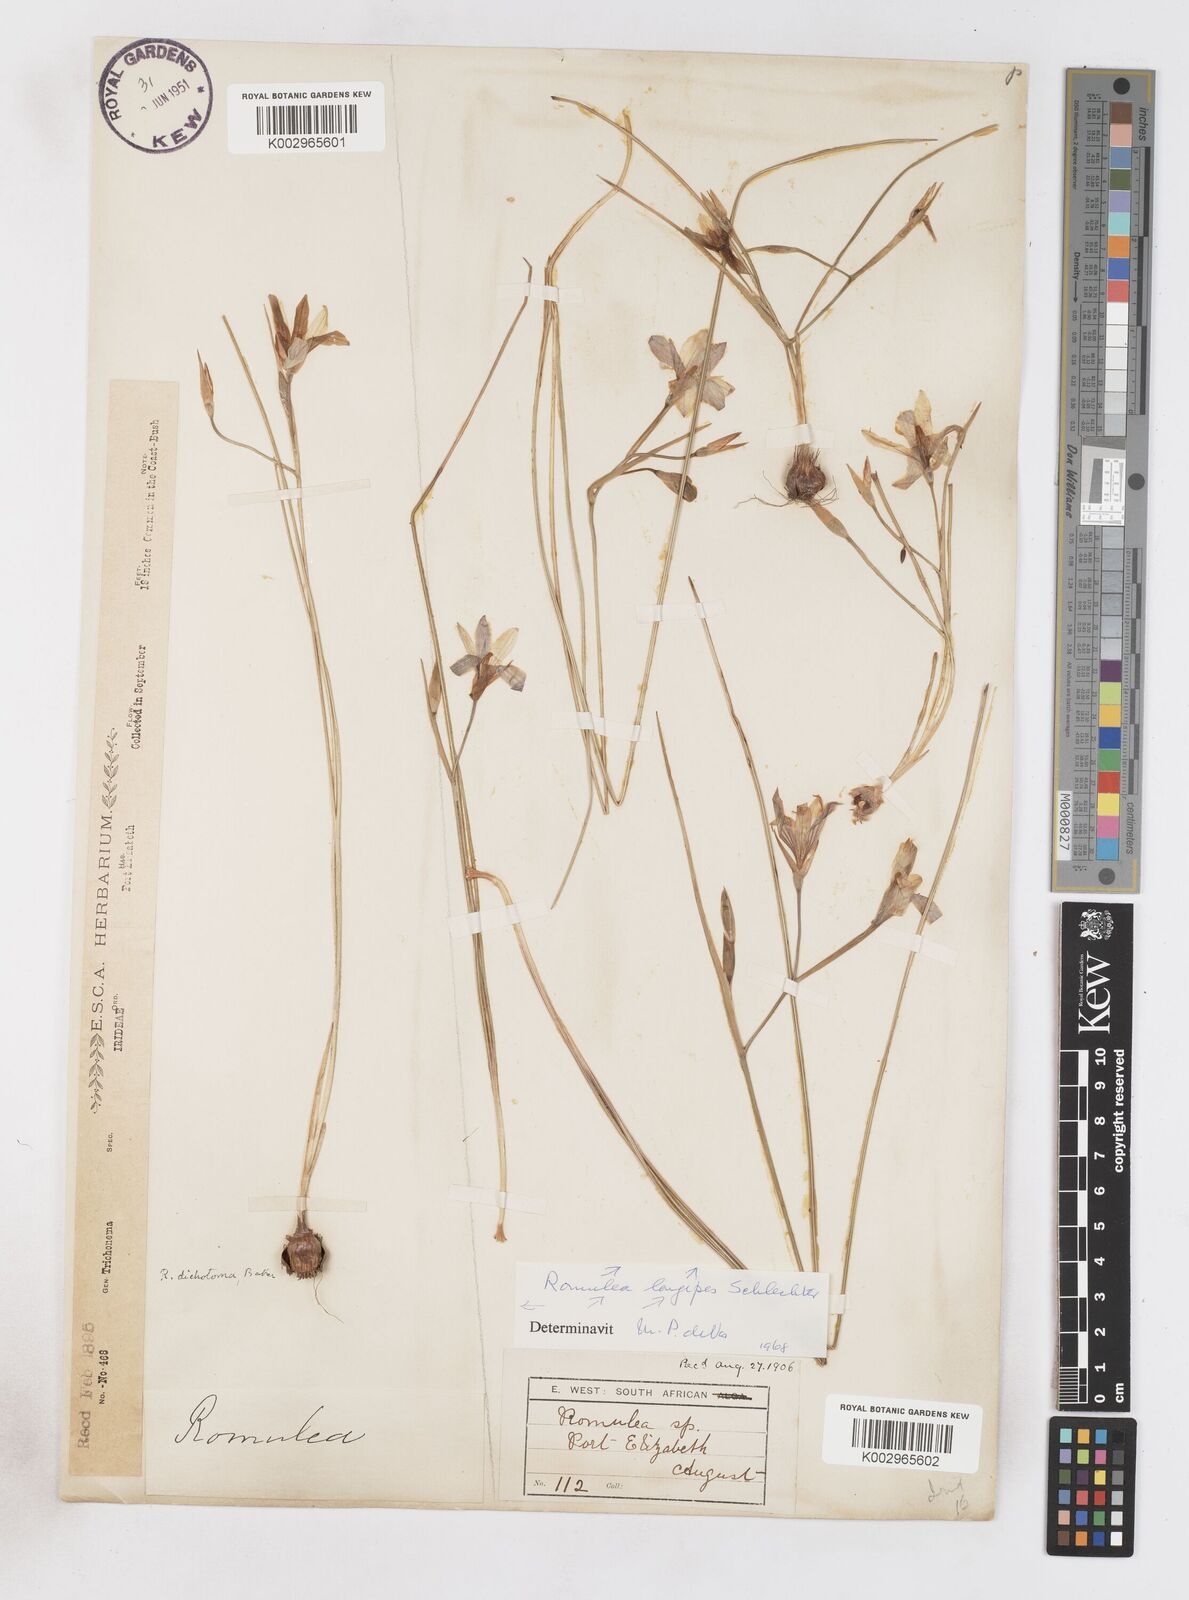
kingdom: Plantae
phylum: Tracheophyta
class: Liliopsida
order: Asparagales
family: Iridaceae
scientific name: Iridaceae
